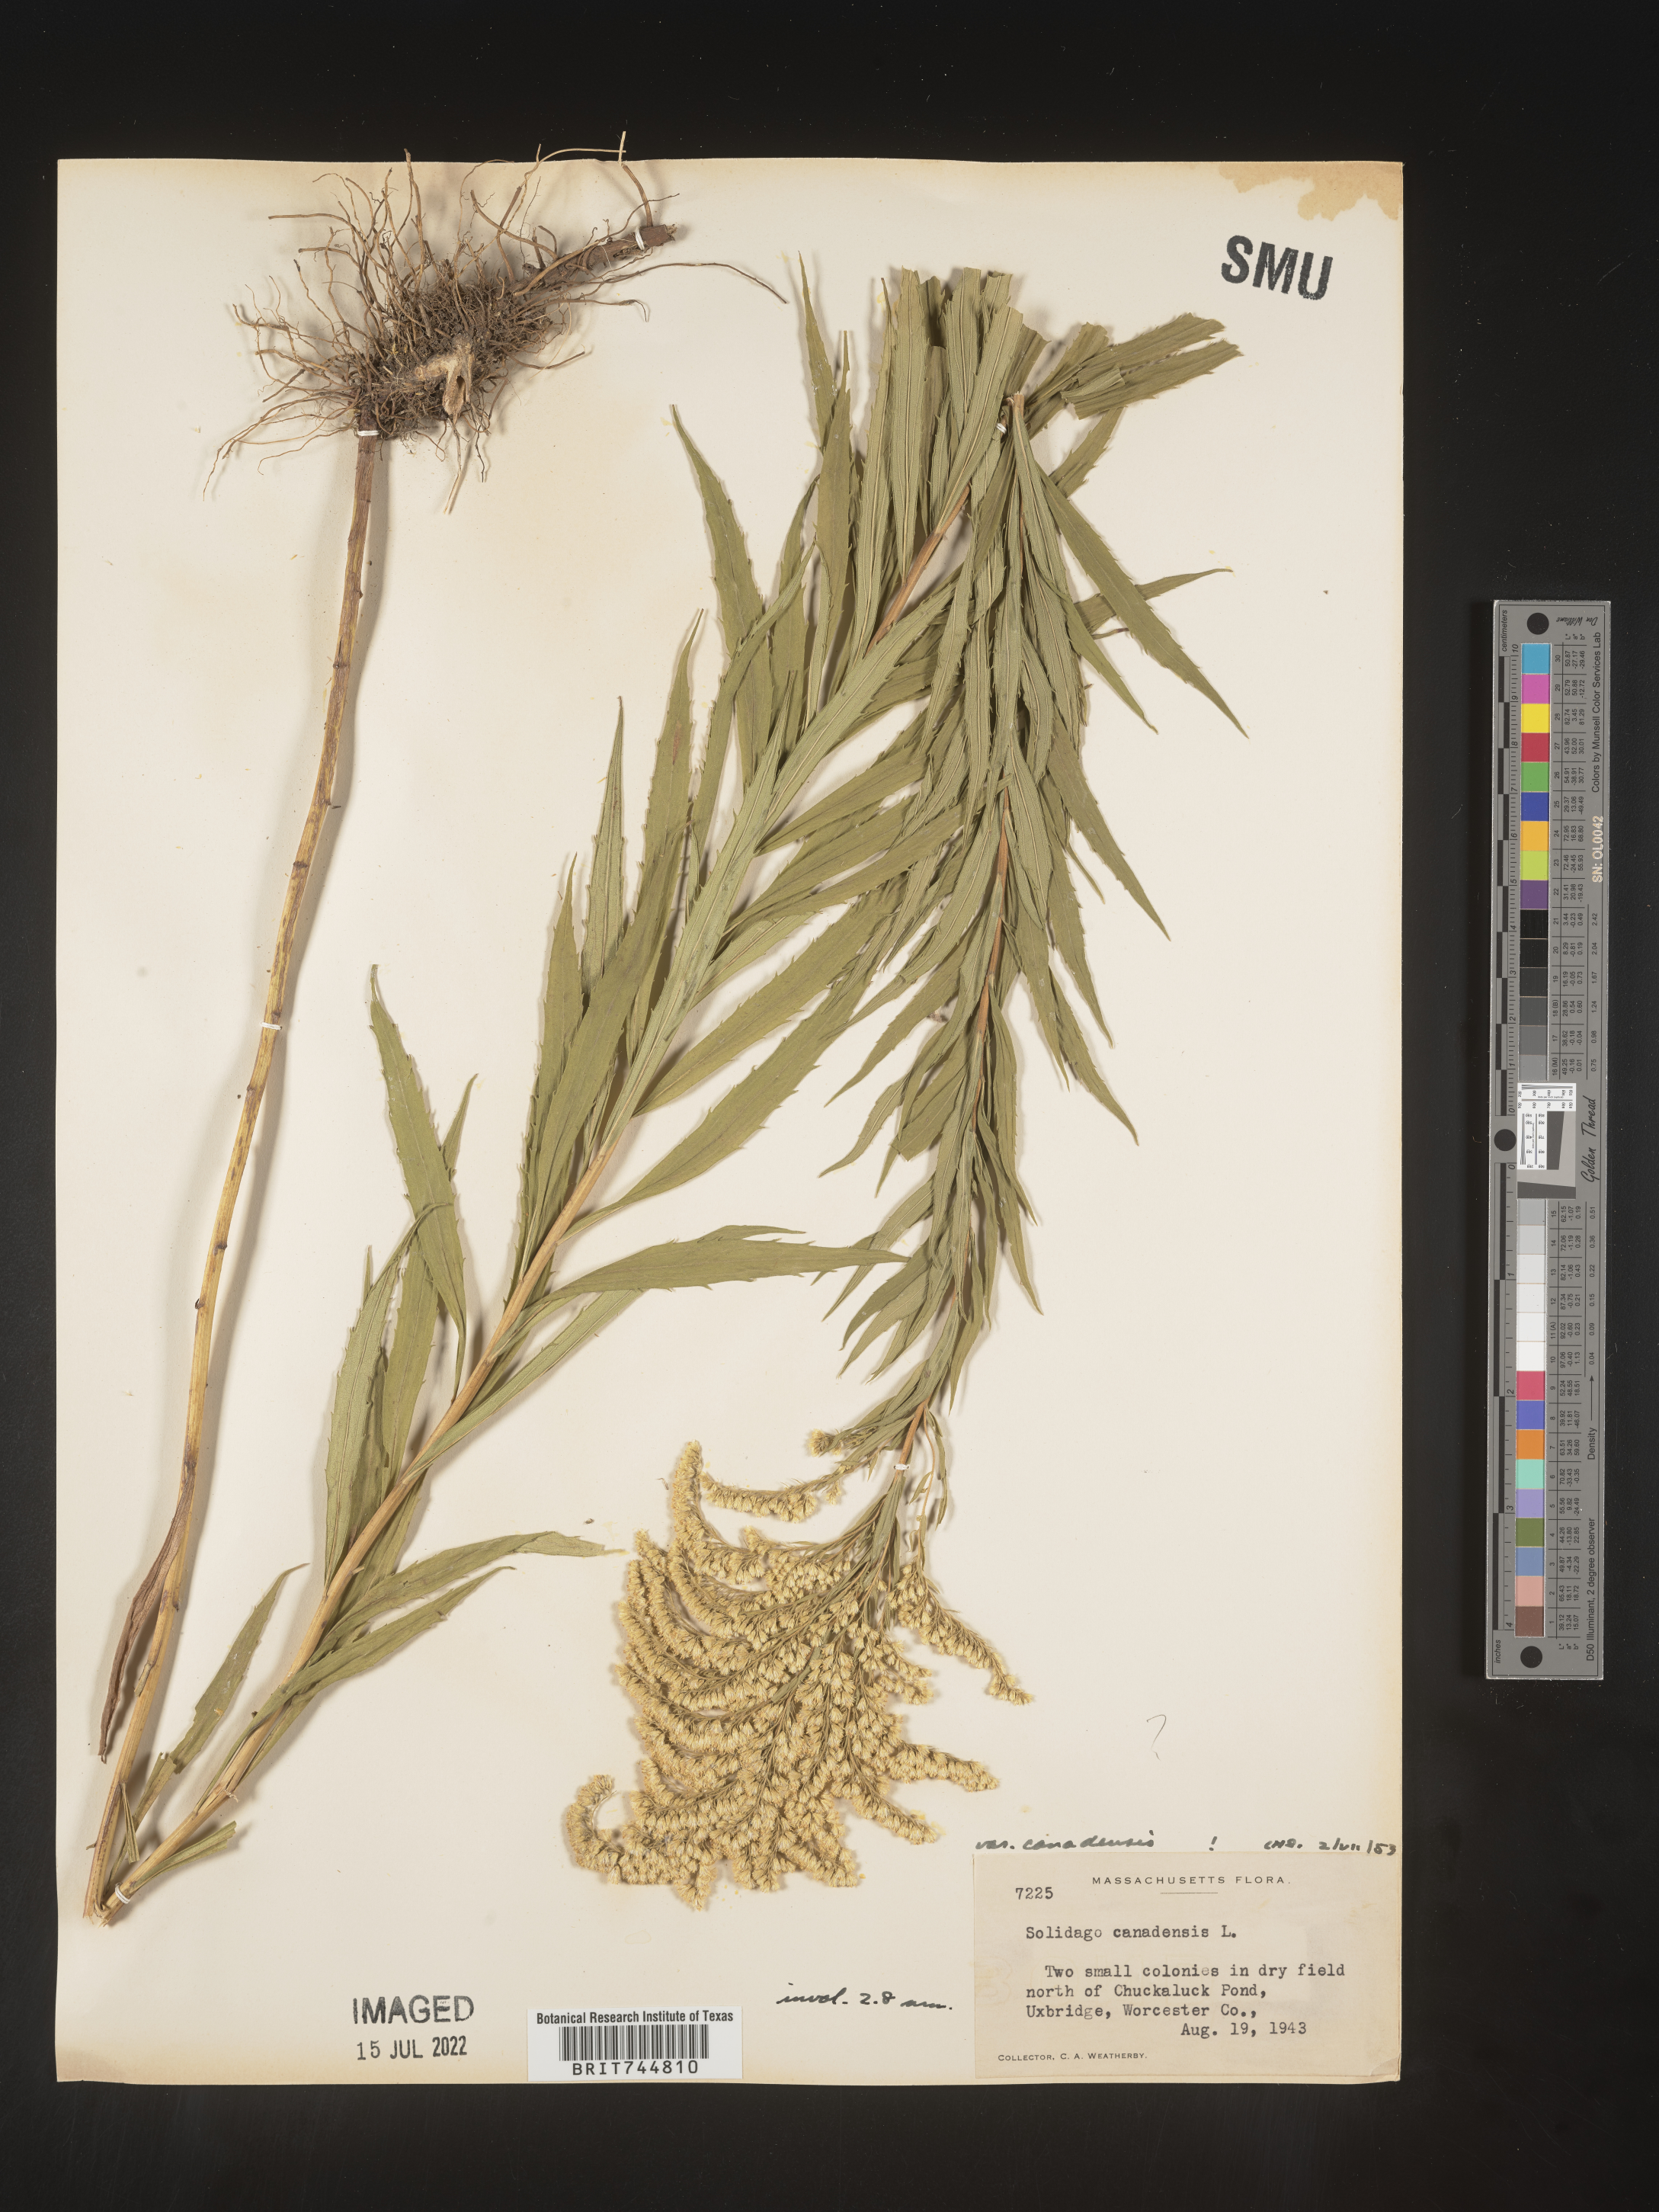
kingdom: Plantae
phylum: Tracheophyta
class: Magnoliopsida
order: Asterales
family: Asteraceae
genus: Solidago
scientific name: Solidago canadensis
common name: Canada goldenrod
